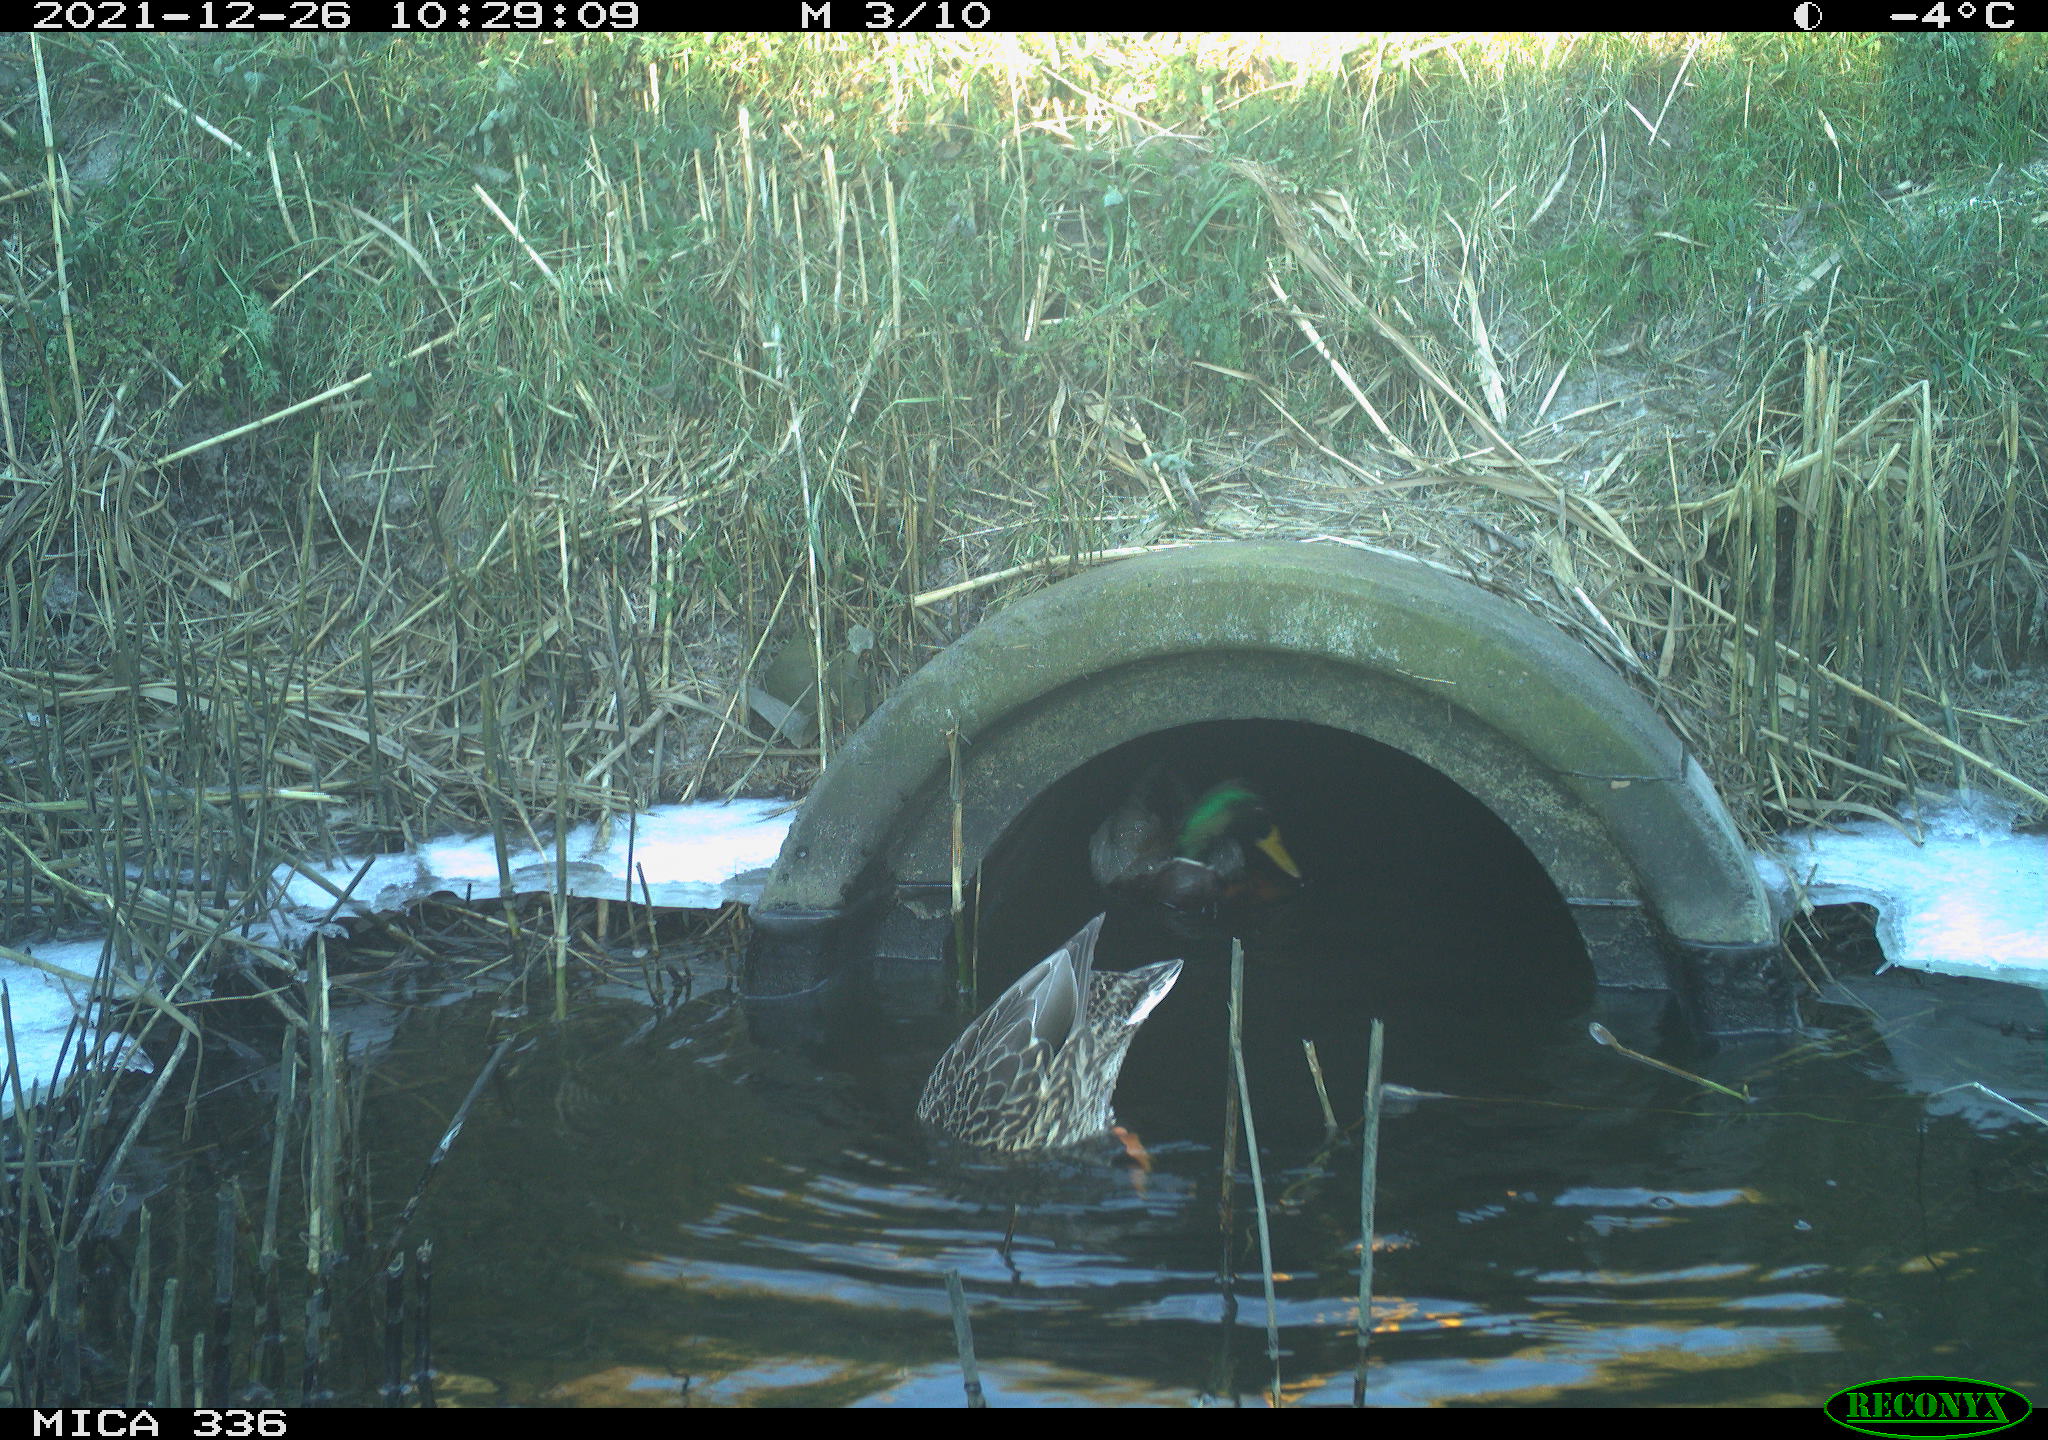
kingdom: Animalia
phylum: Chordata
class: Aves
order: Anseriformes
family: Anatidae
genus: Anas
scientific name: Anas platyrhynchos
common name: Mallard
